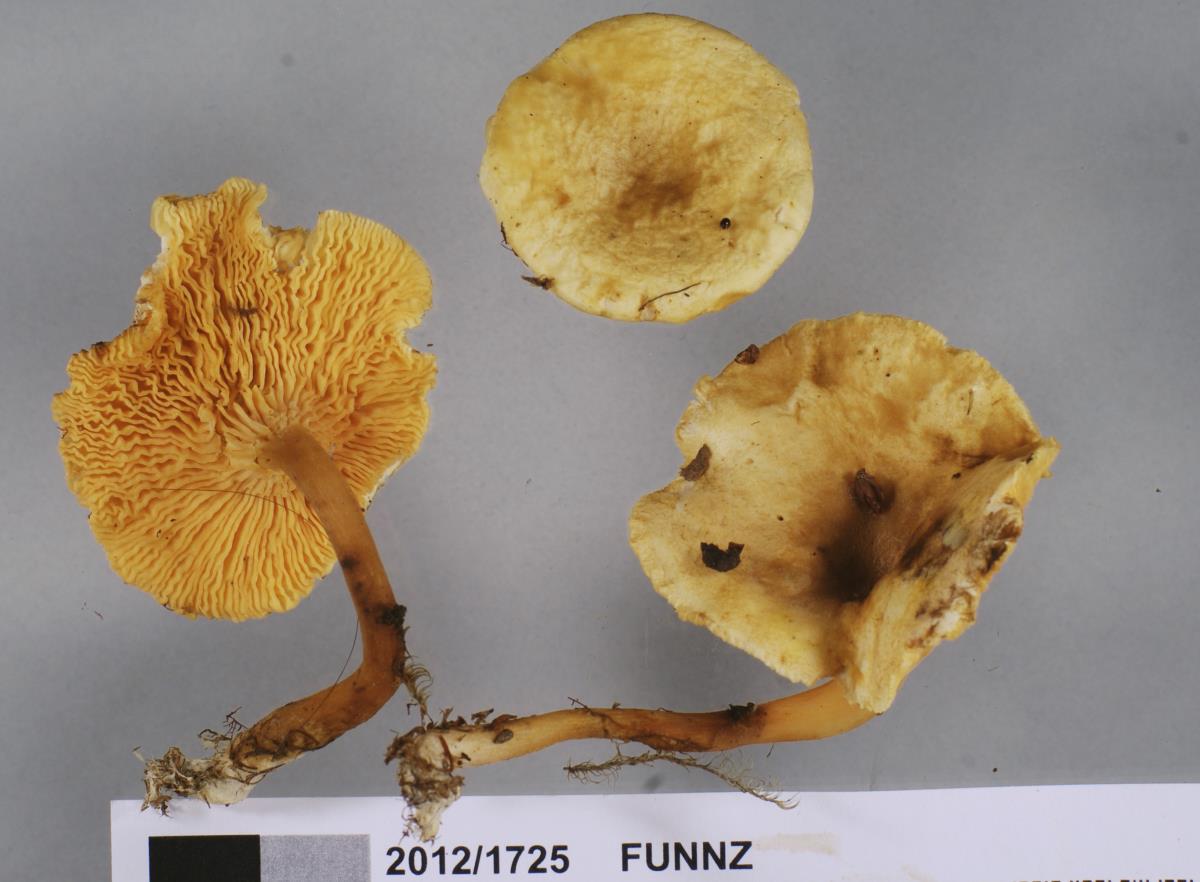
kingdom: Fungi
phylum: Basidiomycota
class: Agaricomycetes
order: Boletales
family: Hygrophoropsidaceae
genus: Hygrophoropsis
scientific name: Hygrophoropsis coacta
